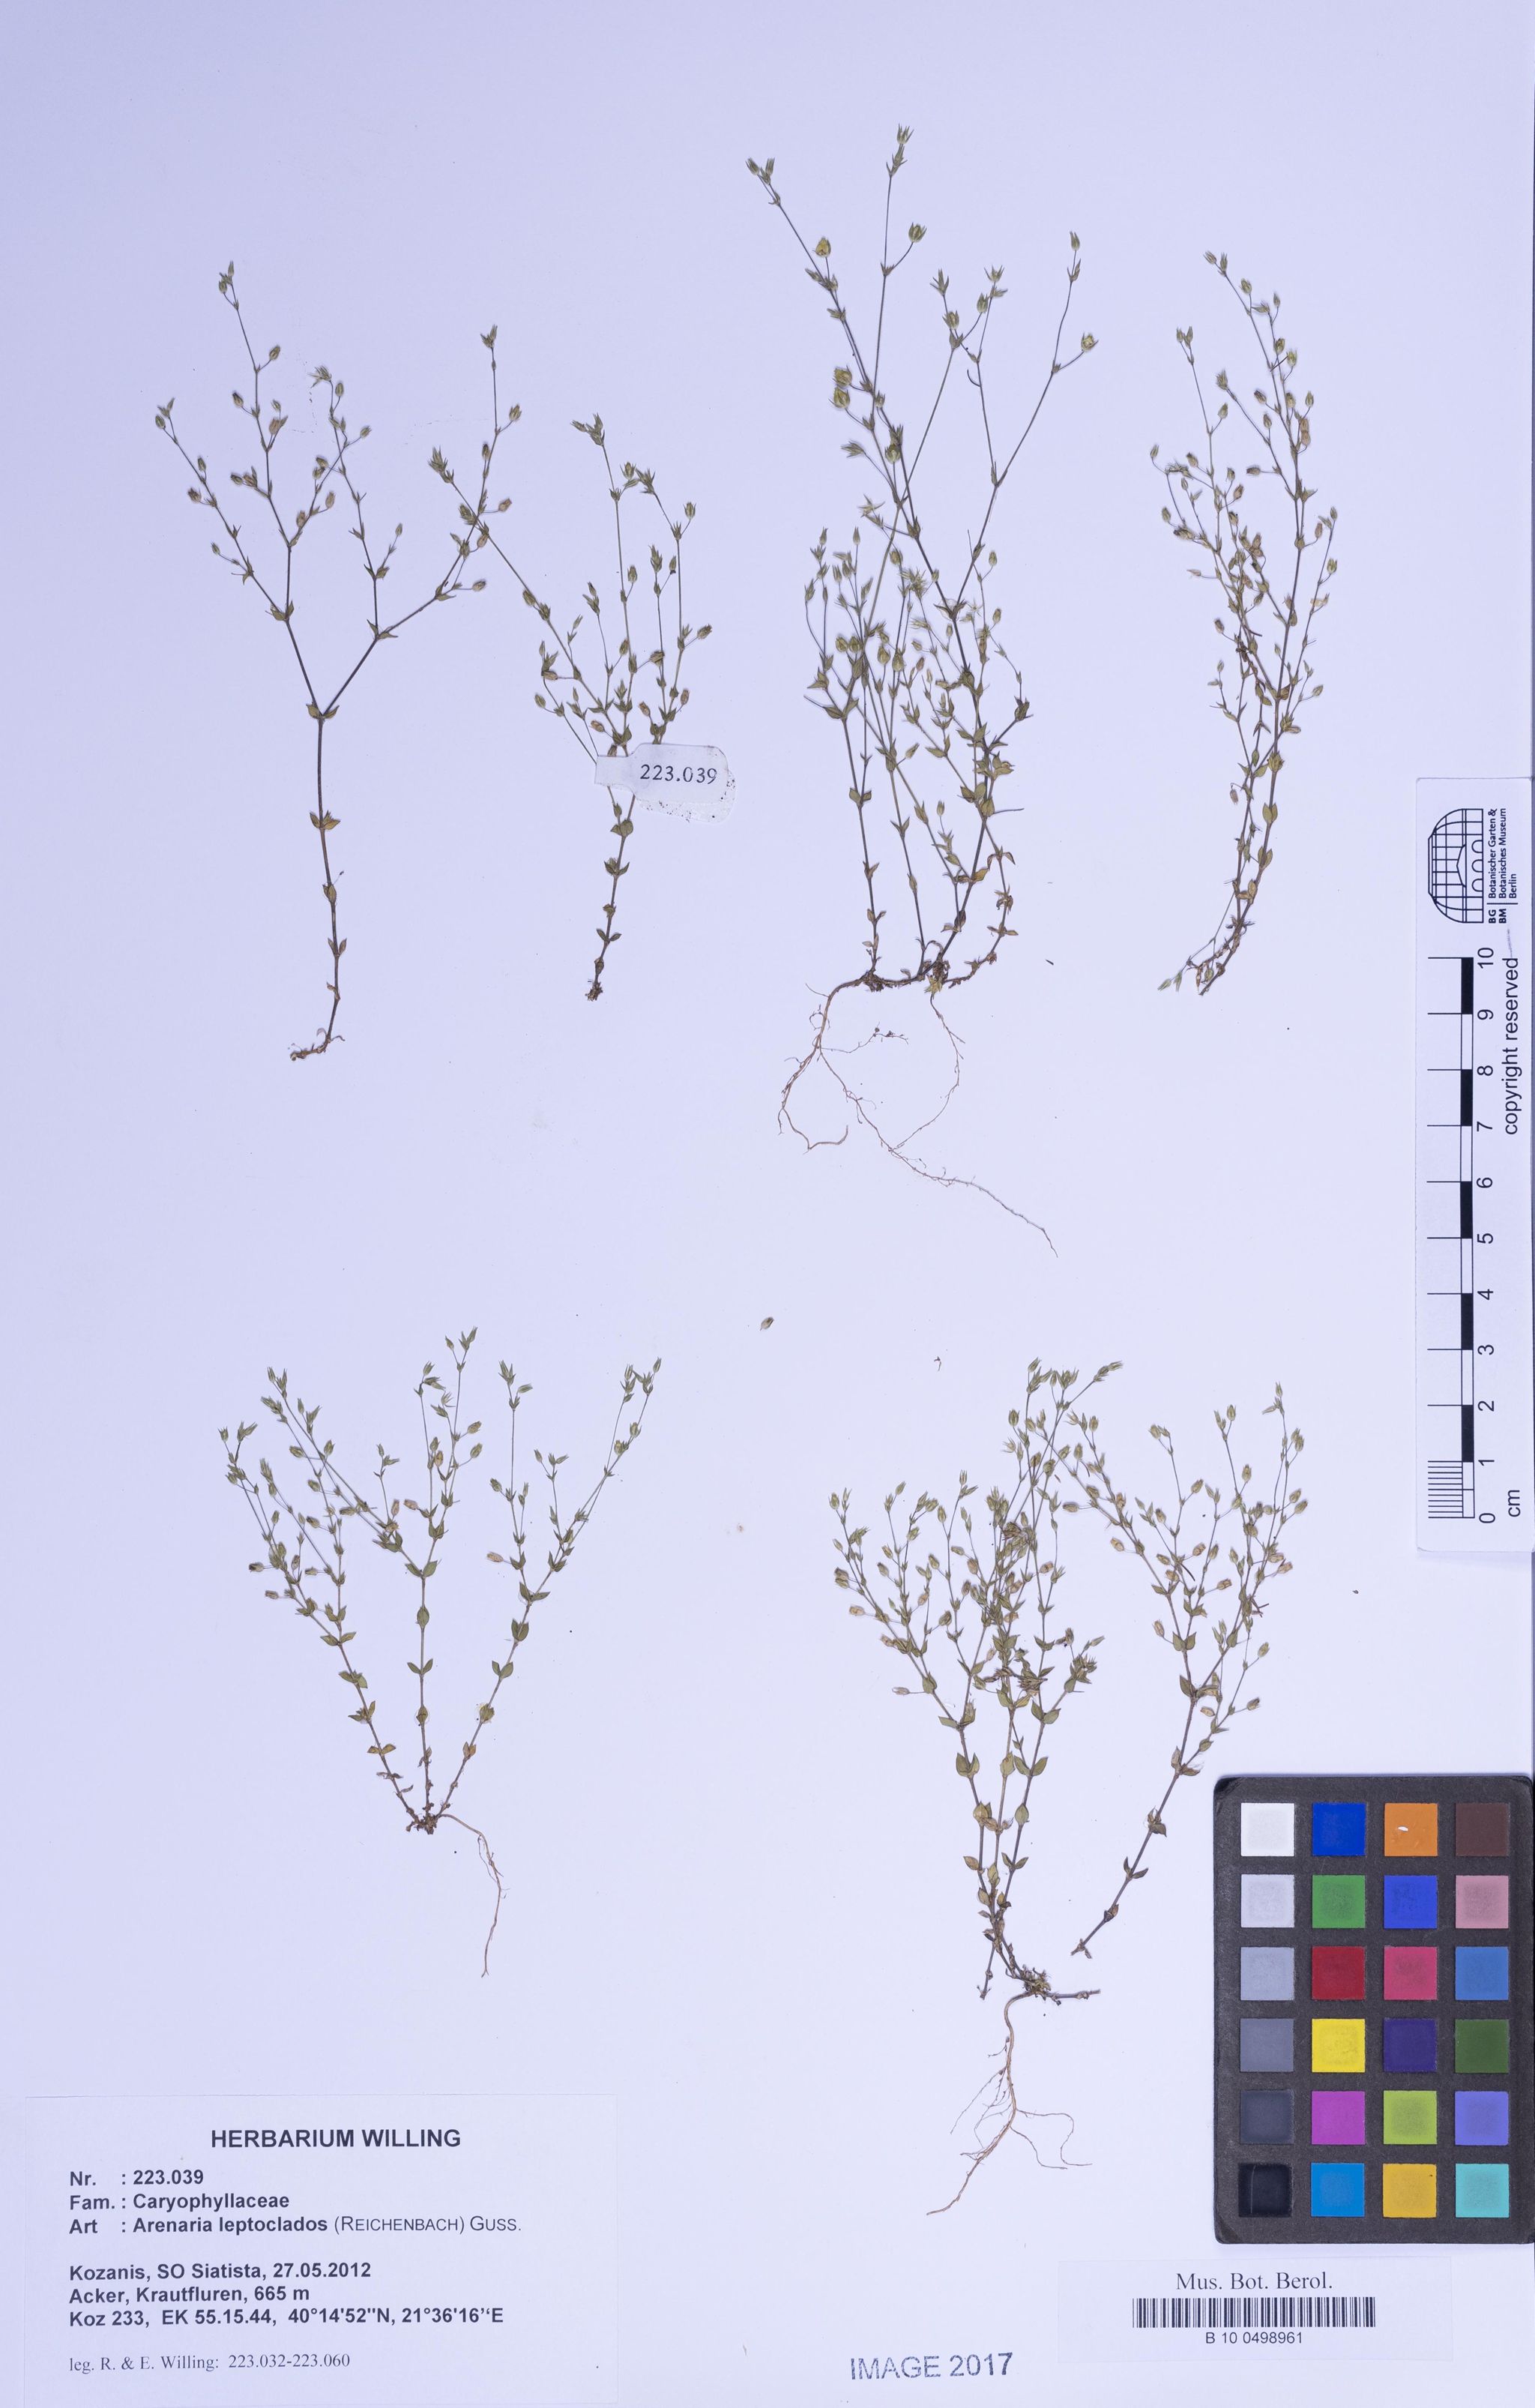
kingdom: Plantae
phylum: Tracheophyta
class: Magnoliopsida
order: Caryophyllales
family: Caryophyllaceae
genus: Arenaria
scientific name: Arenaria leptoclados
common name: Thyme-leaved sandwort
